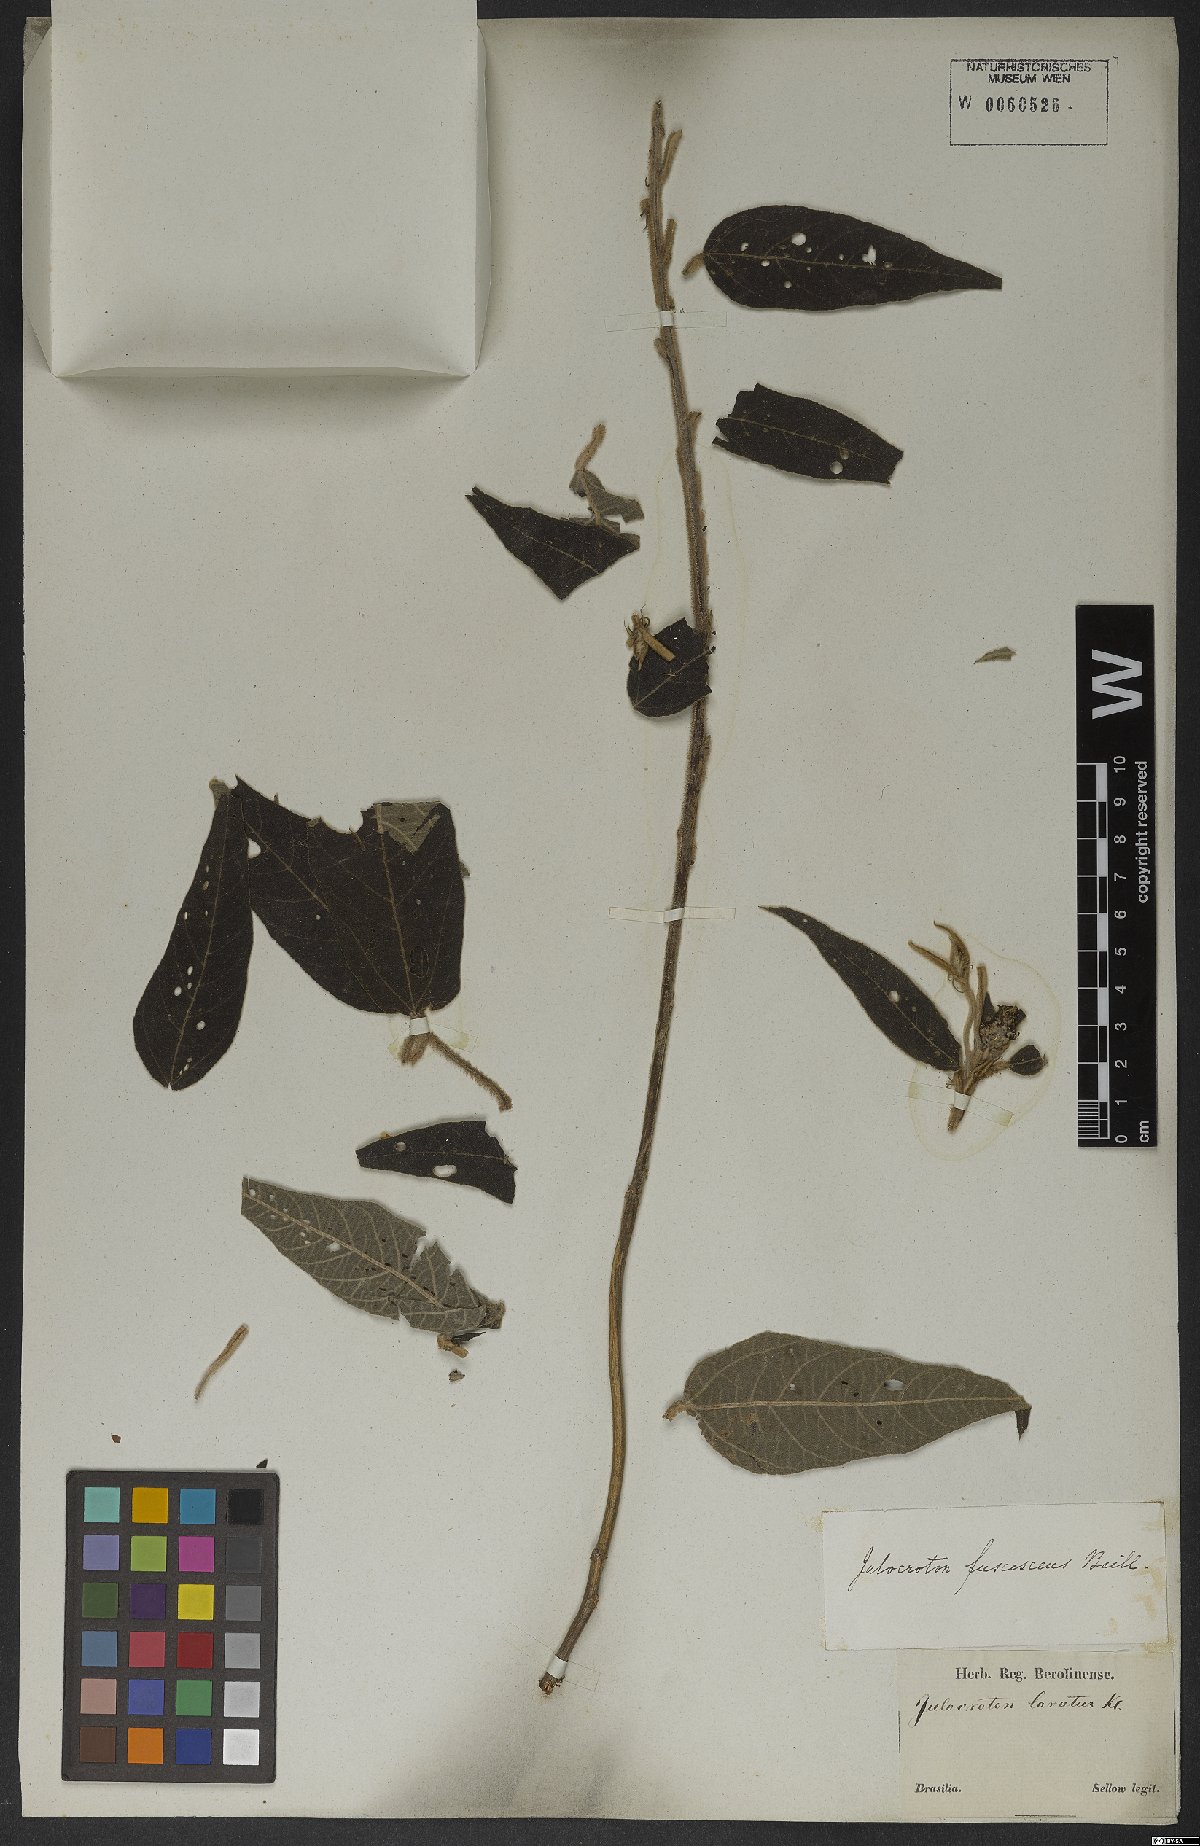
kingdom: Plantae
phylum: Tracheophyta
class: Magnoliopsida
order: Malpighiales
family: Euphorbiaceae
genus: Croton
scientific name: Croton gnaphaloides
